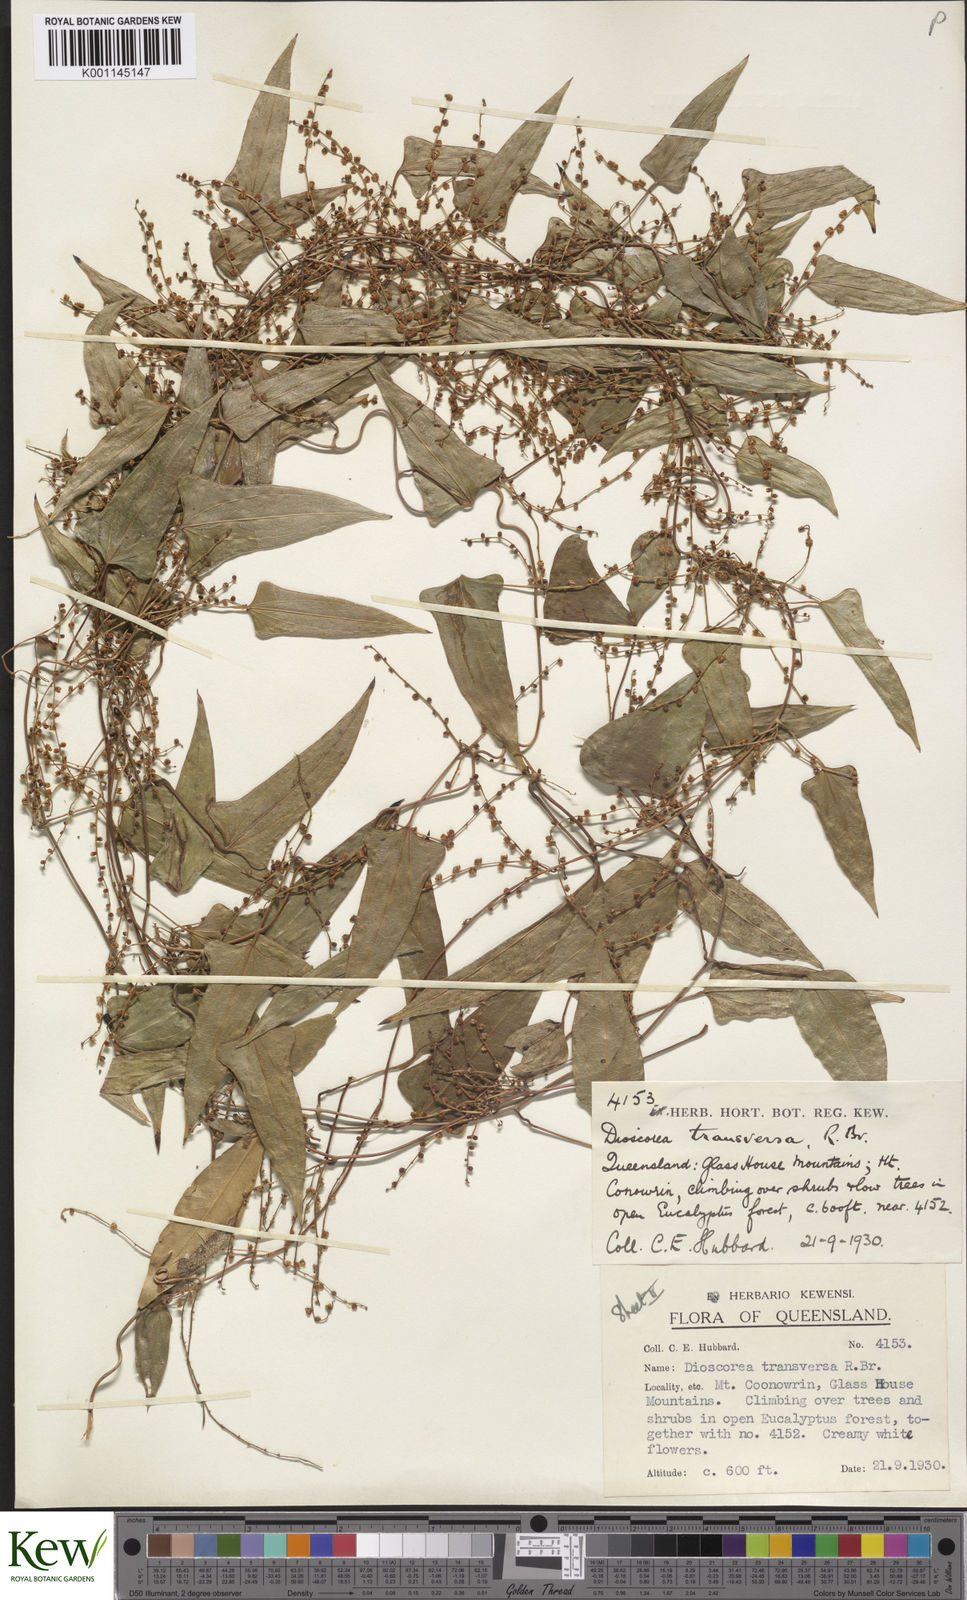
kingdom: Plantae
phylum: Tracheophyta
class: Liliopsida
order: Dioscoreales
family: Dioscoreaceae
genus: Dioscorea
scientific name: Dioscorea transversa
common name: Long yam
